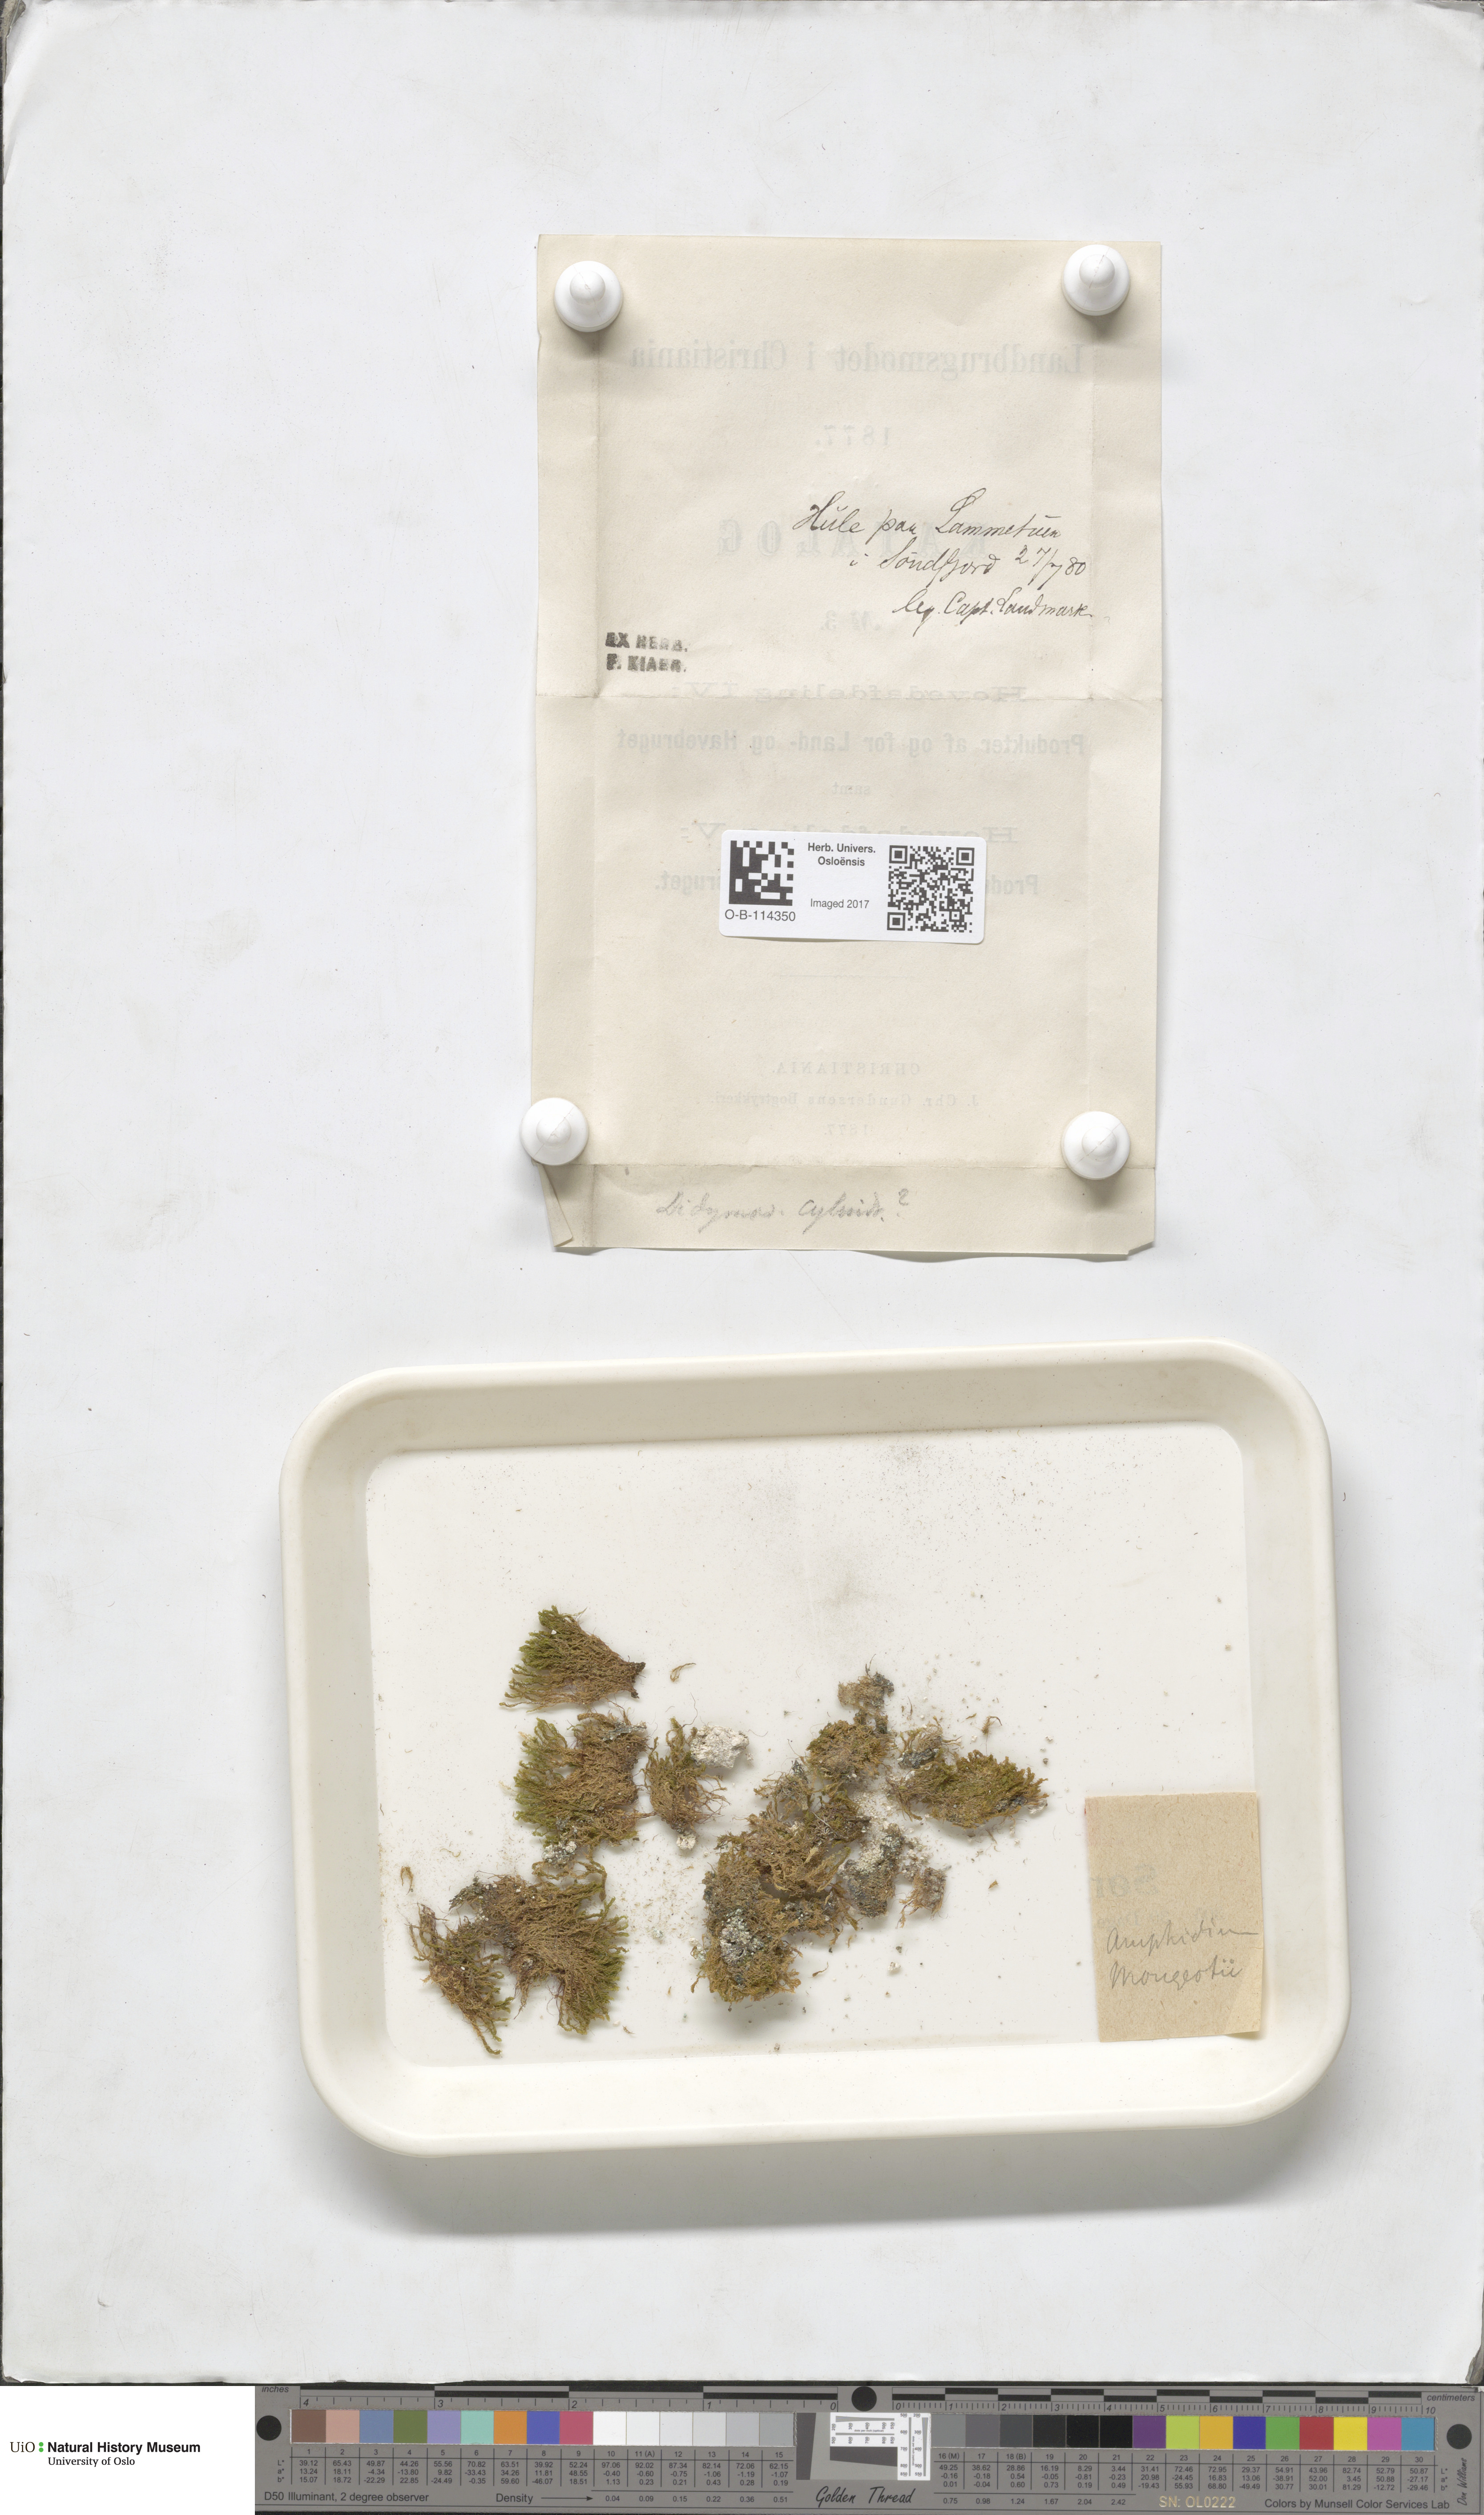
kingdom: Plantae
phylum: Bryophyta
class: Bryopsida
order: Dicranales
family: Amphidiaceae
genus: Amphidium
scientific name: Amphidium mougeotii
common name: Mougeot's yoke moss
